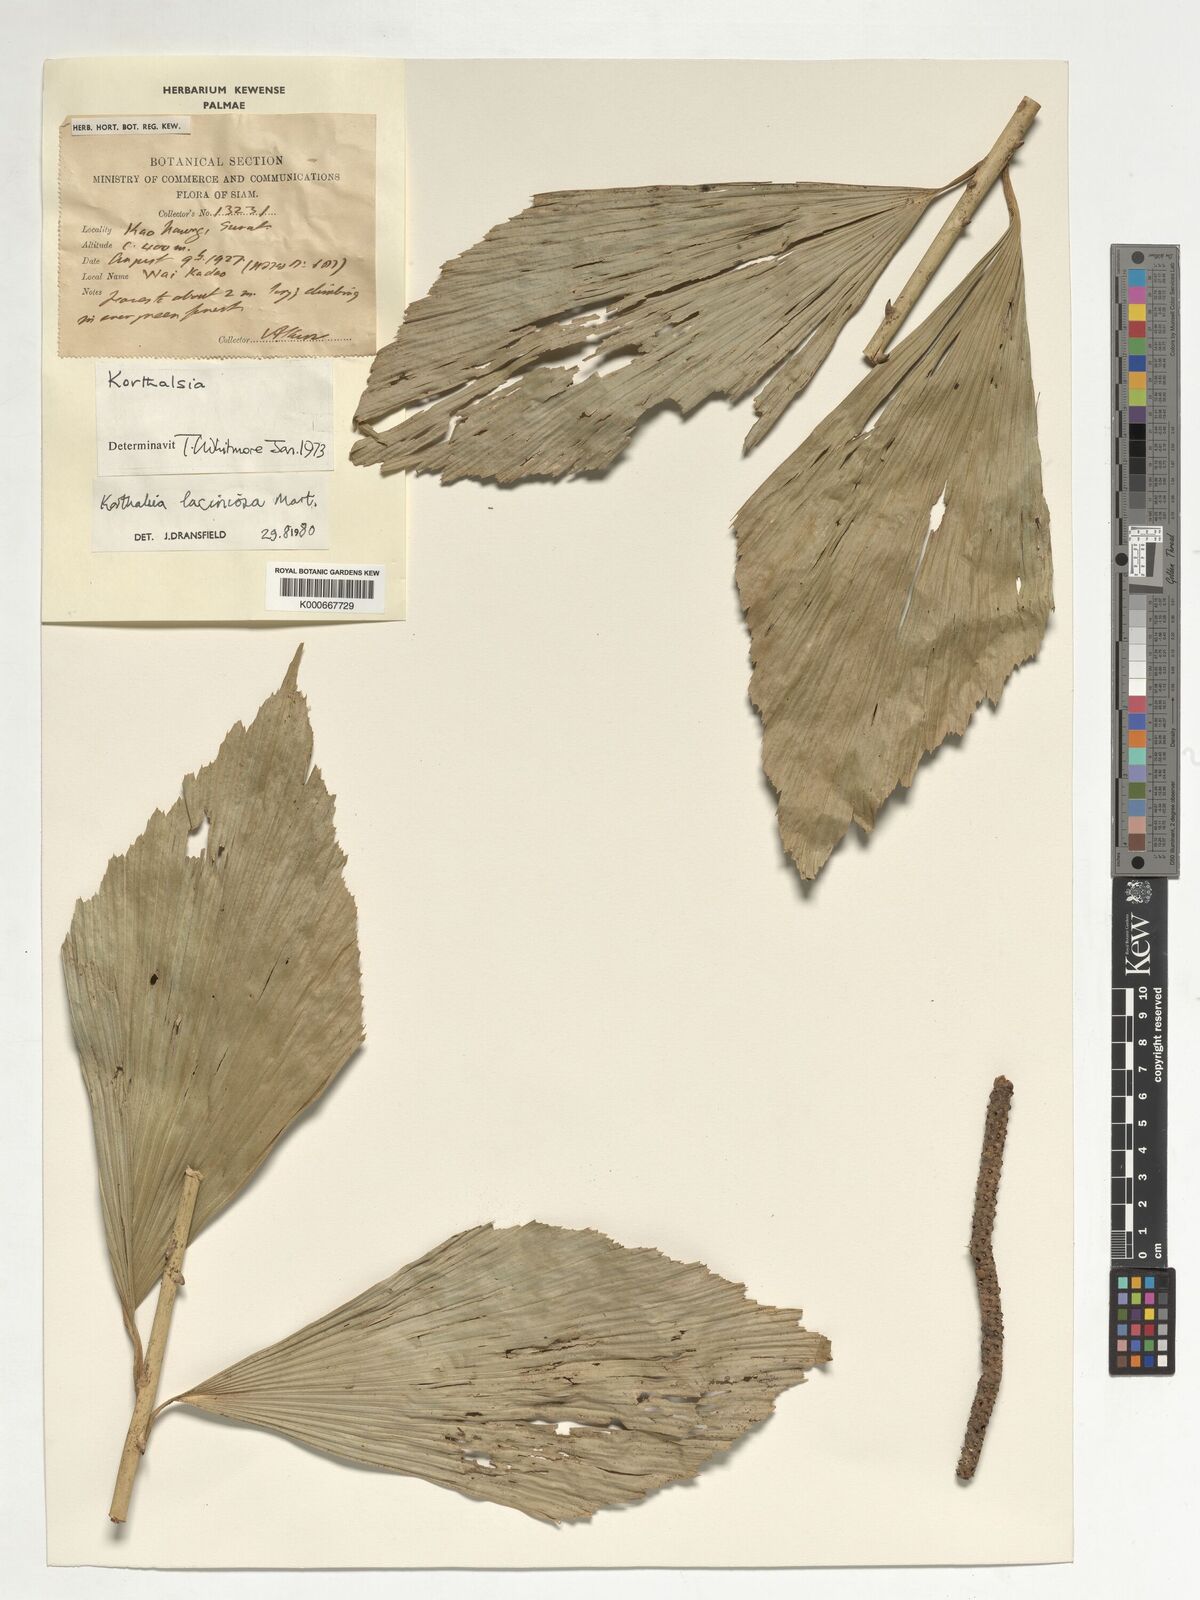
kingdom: Plantae
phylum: Tracheophyta
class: Liliopsida
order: Arecales
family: Arecaceae
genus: Korthalsia
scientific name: Korthalsia laciniosa
